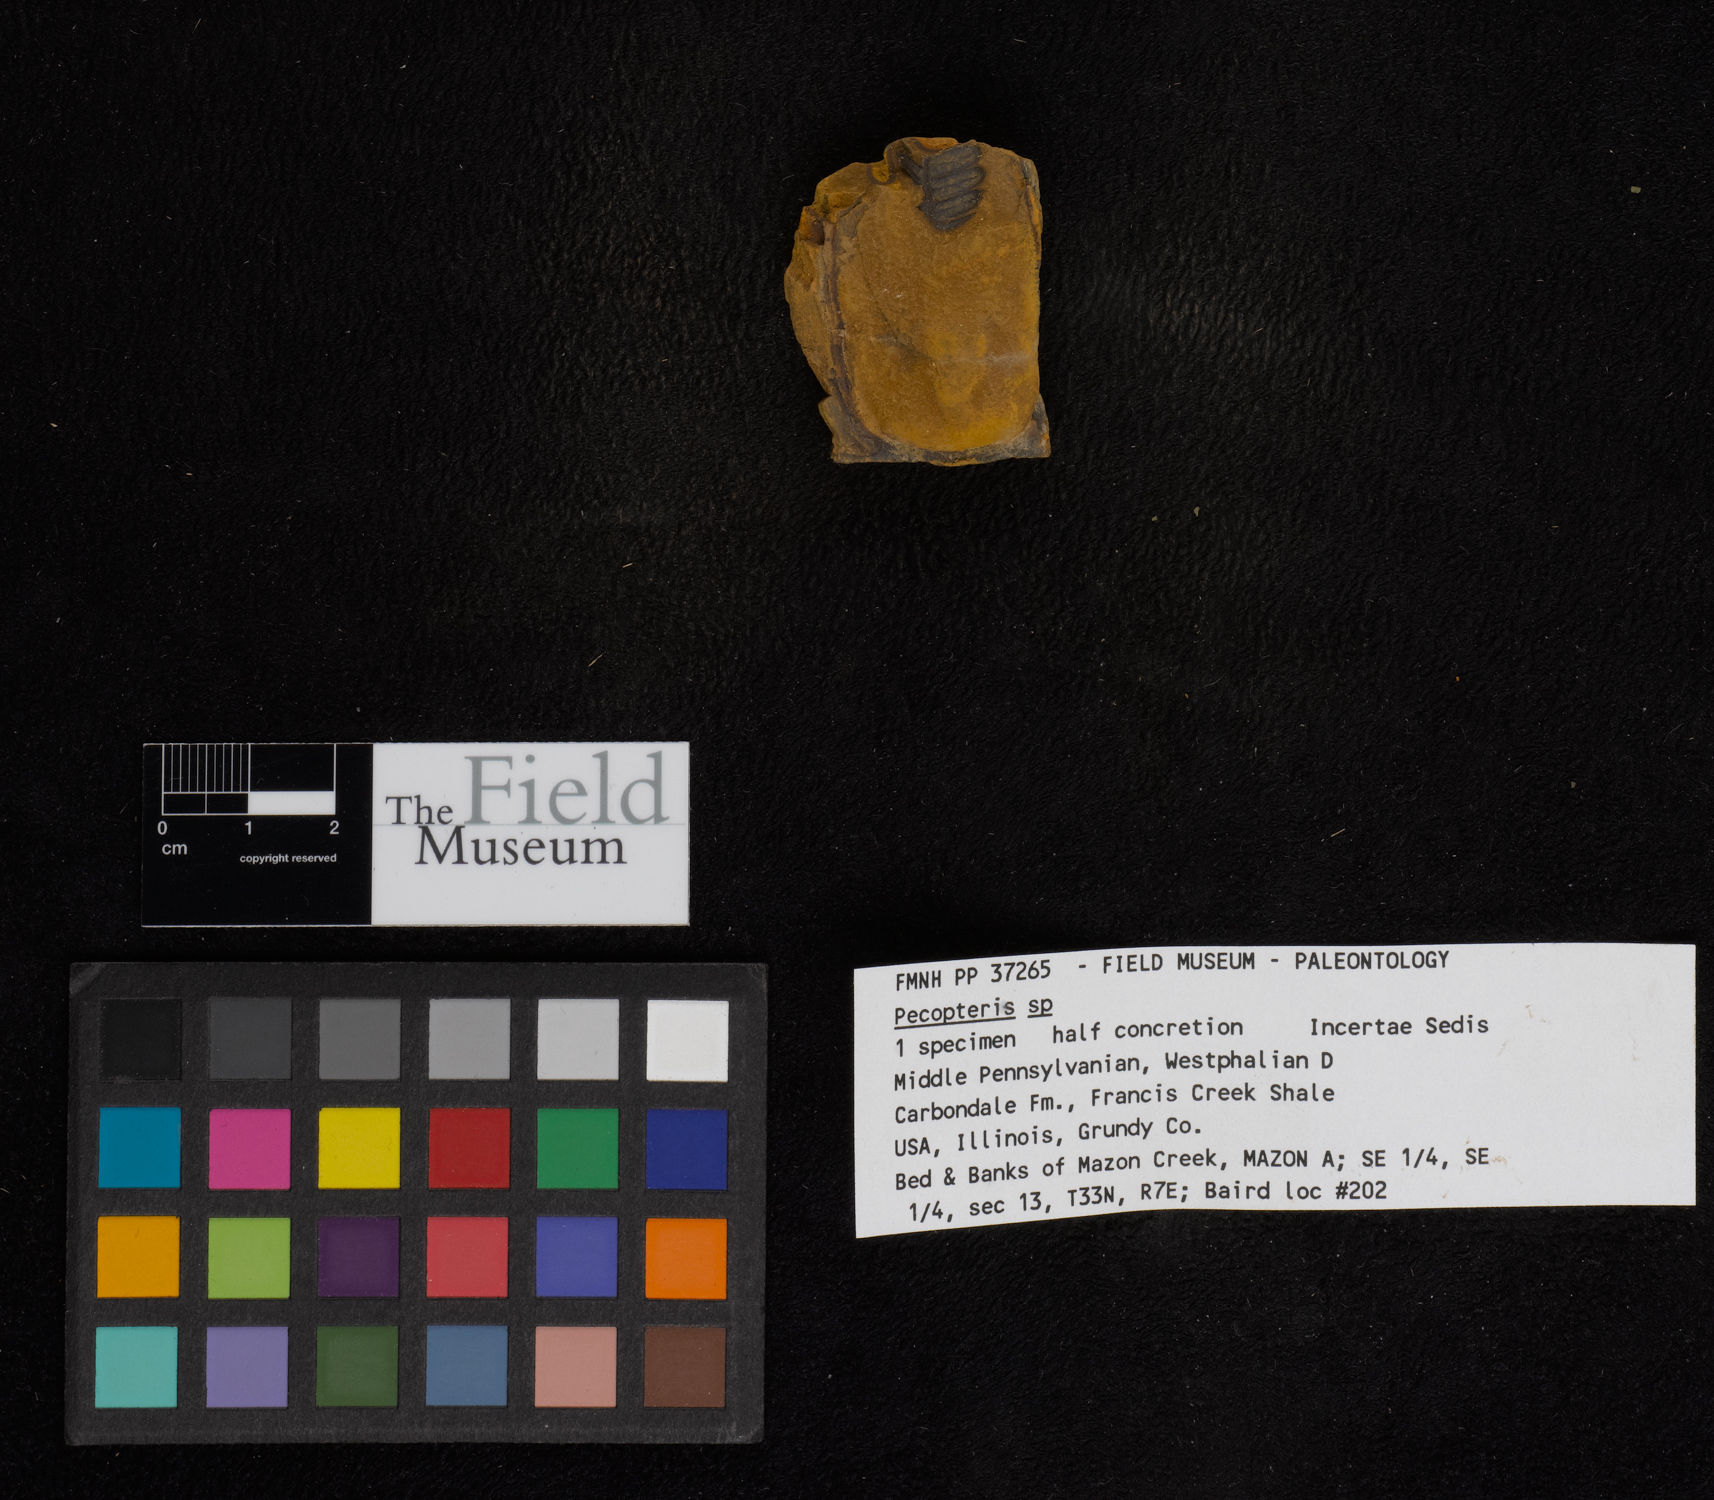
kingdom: Plantae
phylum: Tracheophyta
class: Polypodiopsida
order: Marattiales
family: Asterothecaceae
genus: Pecopteris
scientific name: Pecopteris
